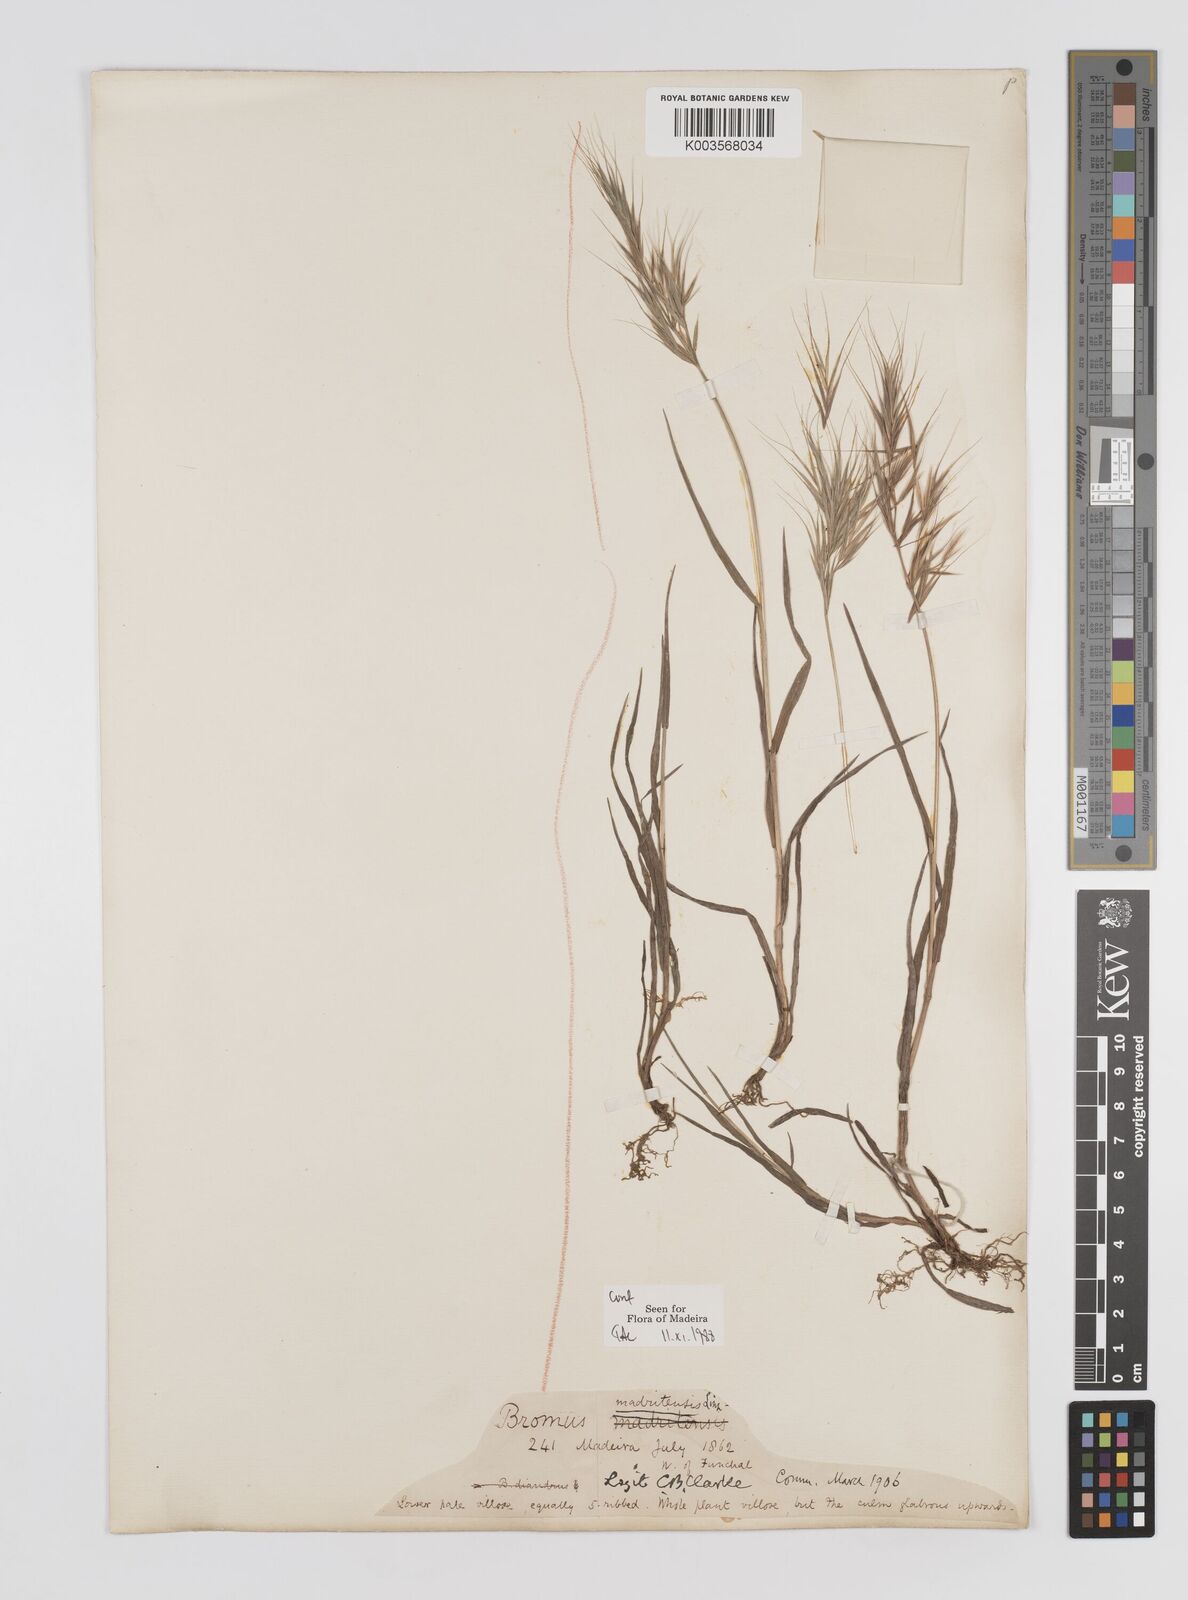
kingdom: Plantae
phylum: Tracheophyta
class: Liliopsida
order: Poales
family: Poaceae
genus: Bromus
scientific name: Bromus
